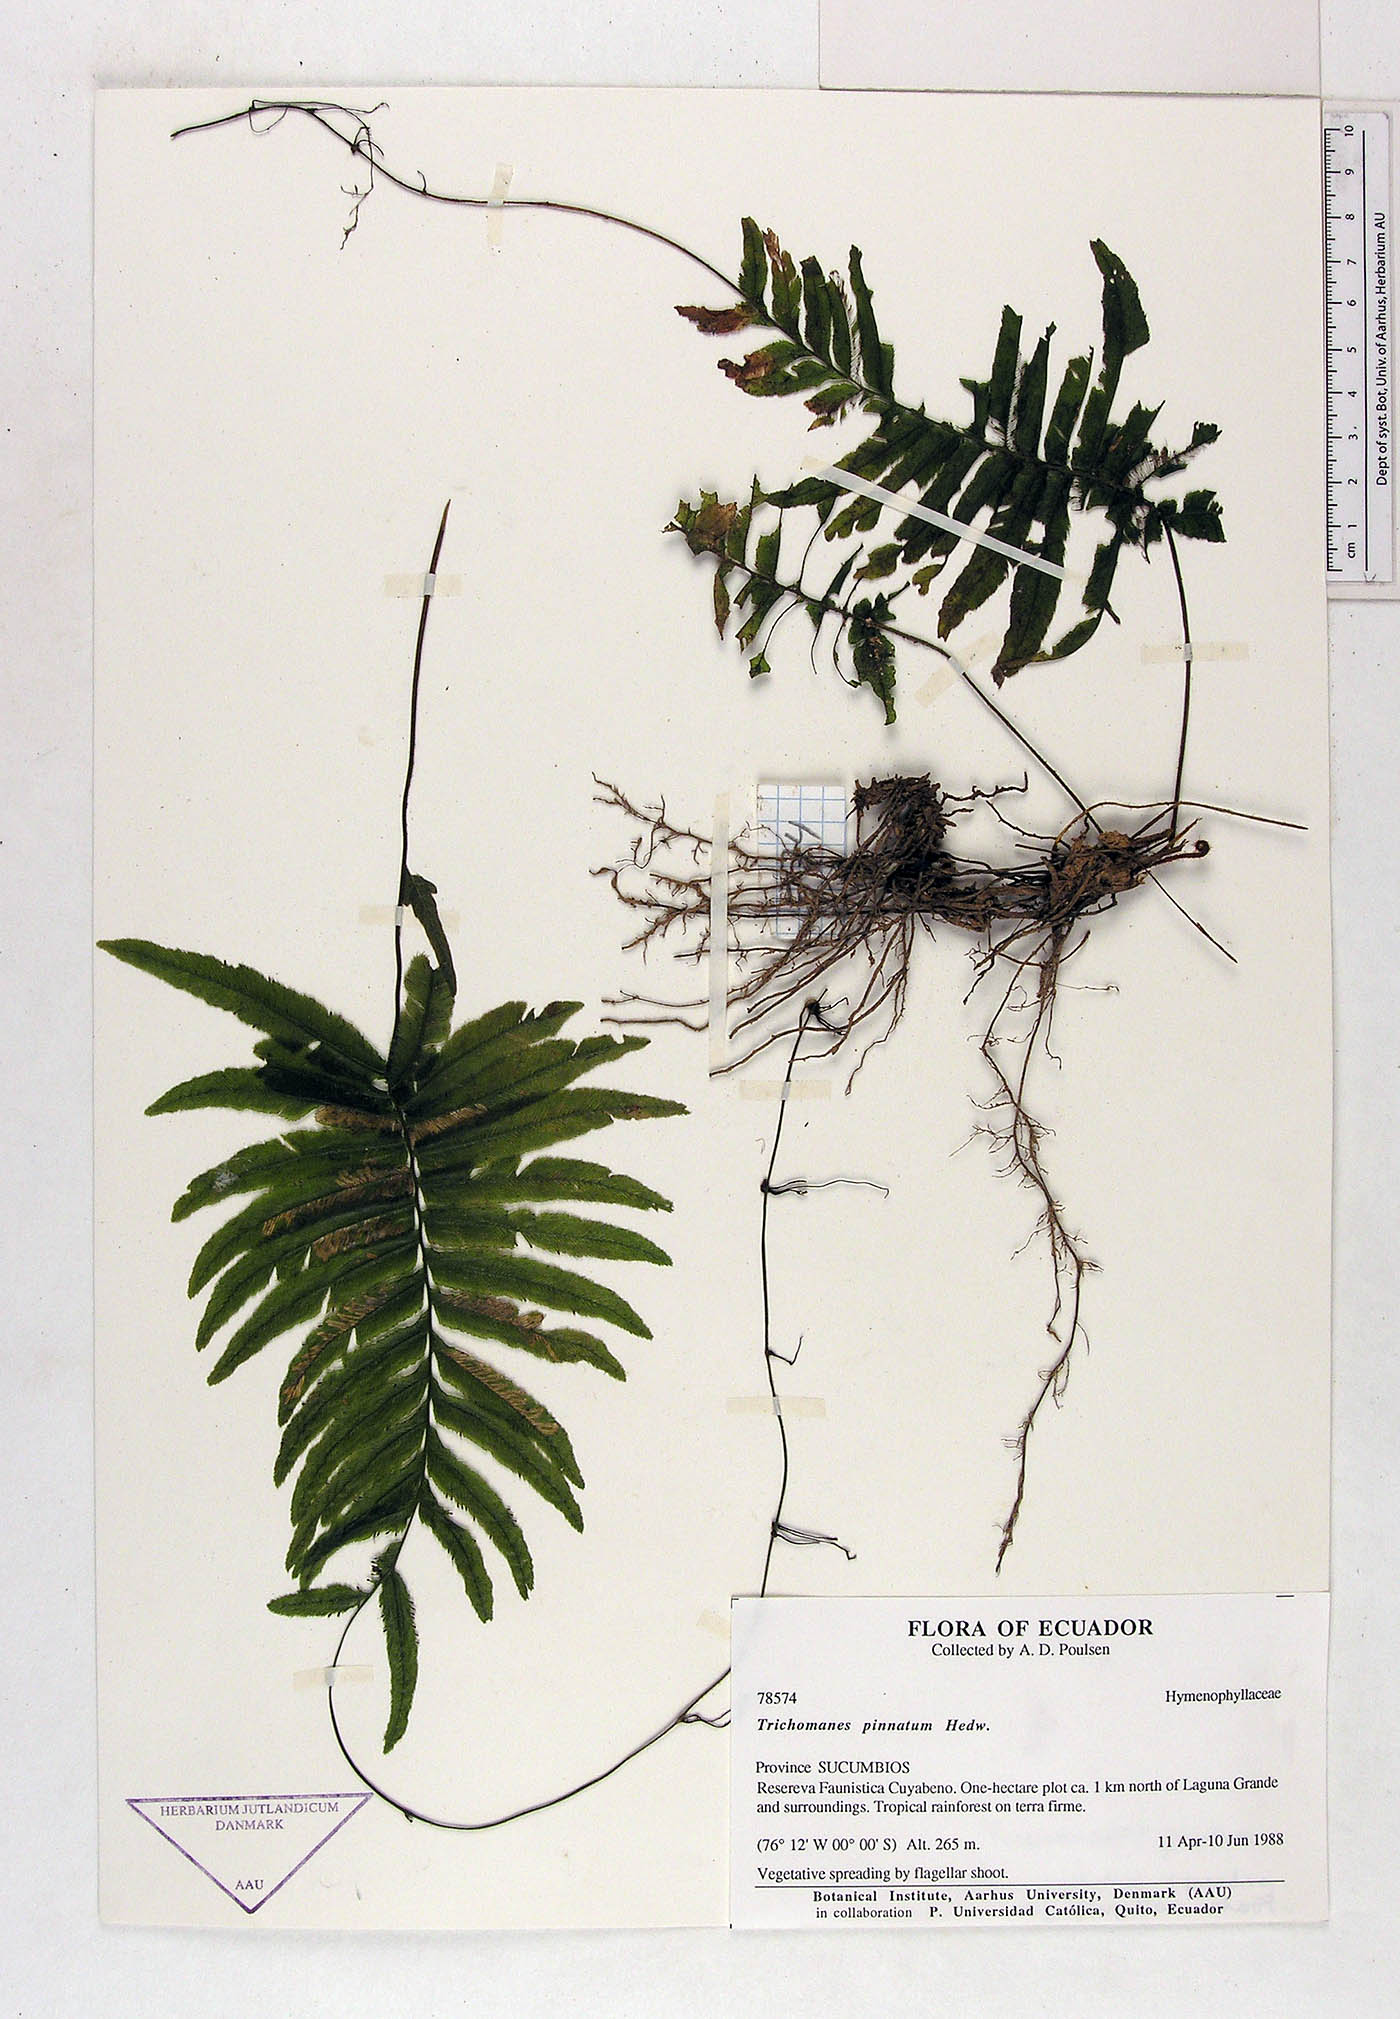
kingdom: Plantae
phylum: Tracheophyta
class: Polypodiopsida
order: Hymenophyllales
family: Hymenophyllaceae
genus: Trichomanes
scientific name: Trichomanes pinnatum
